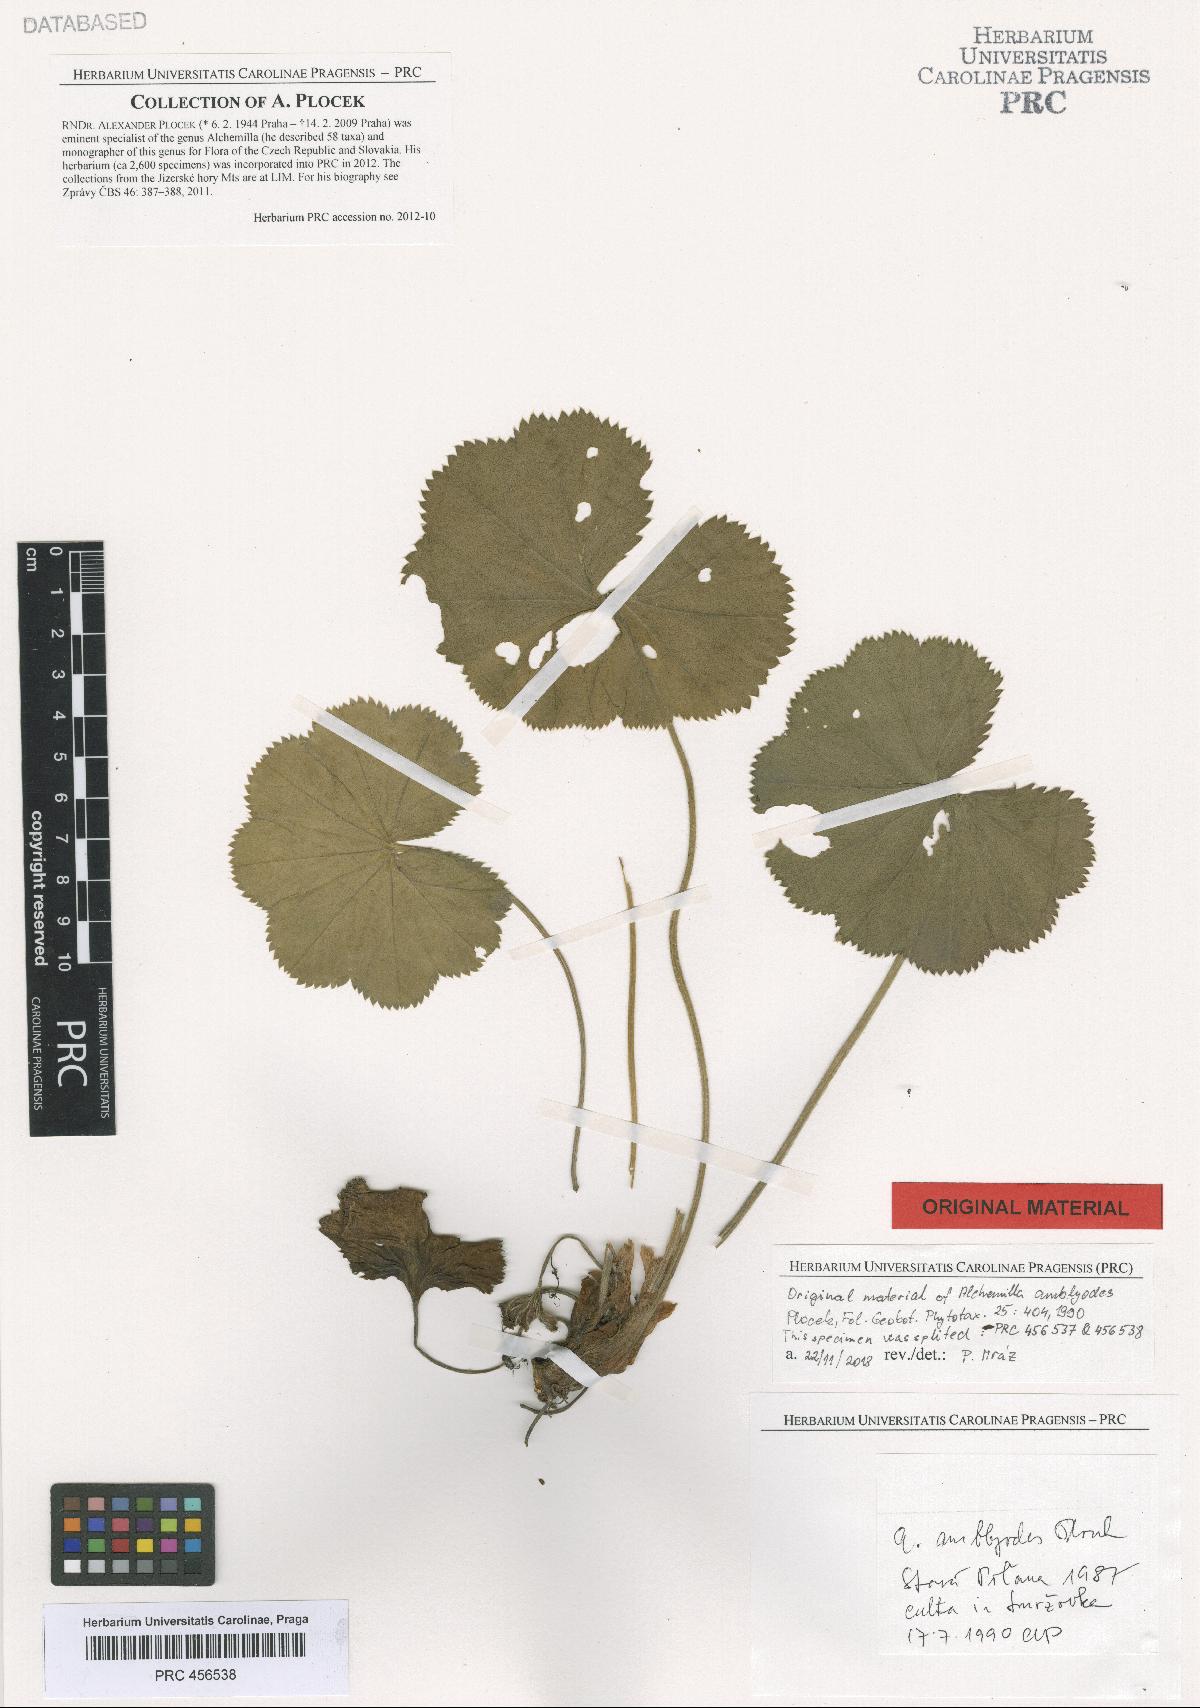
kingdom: Plantae
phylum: Tracheophyta
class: Magnoliopsida
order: Rosales
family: Rosaceae
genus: Alchemilla
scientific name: Alchemilla amblyodes
